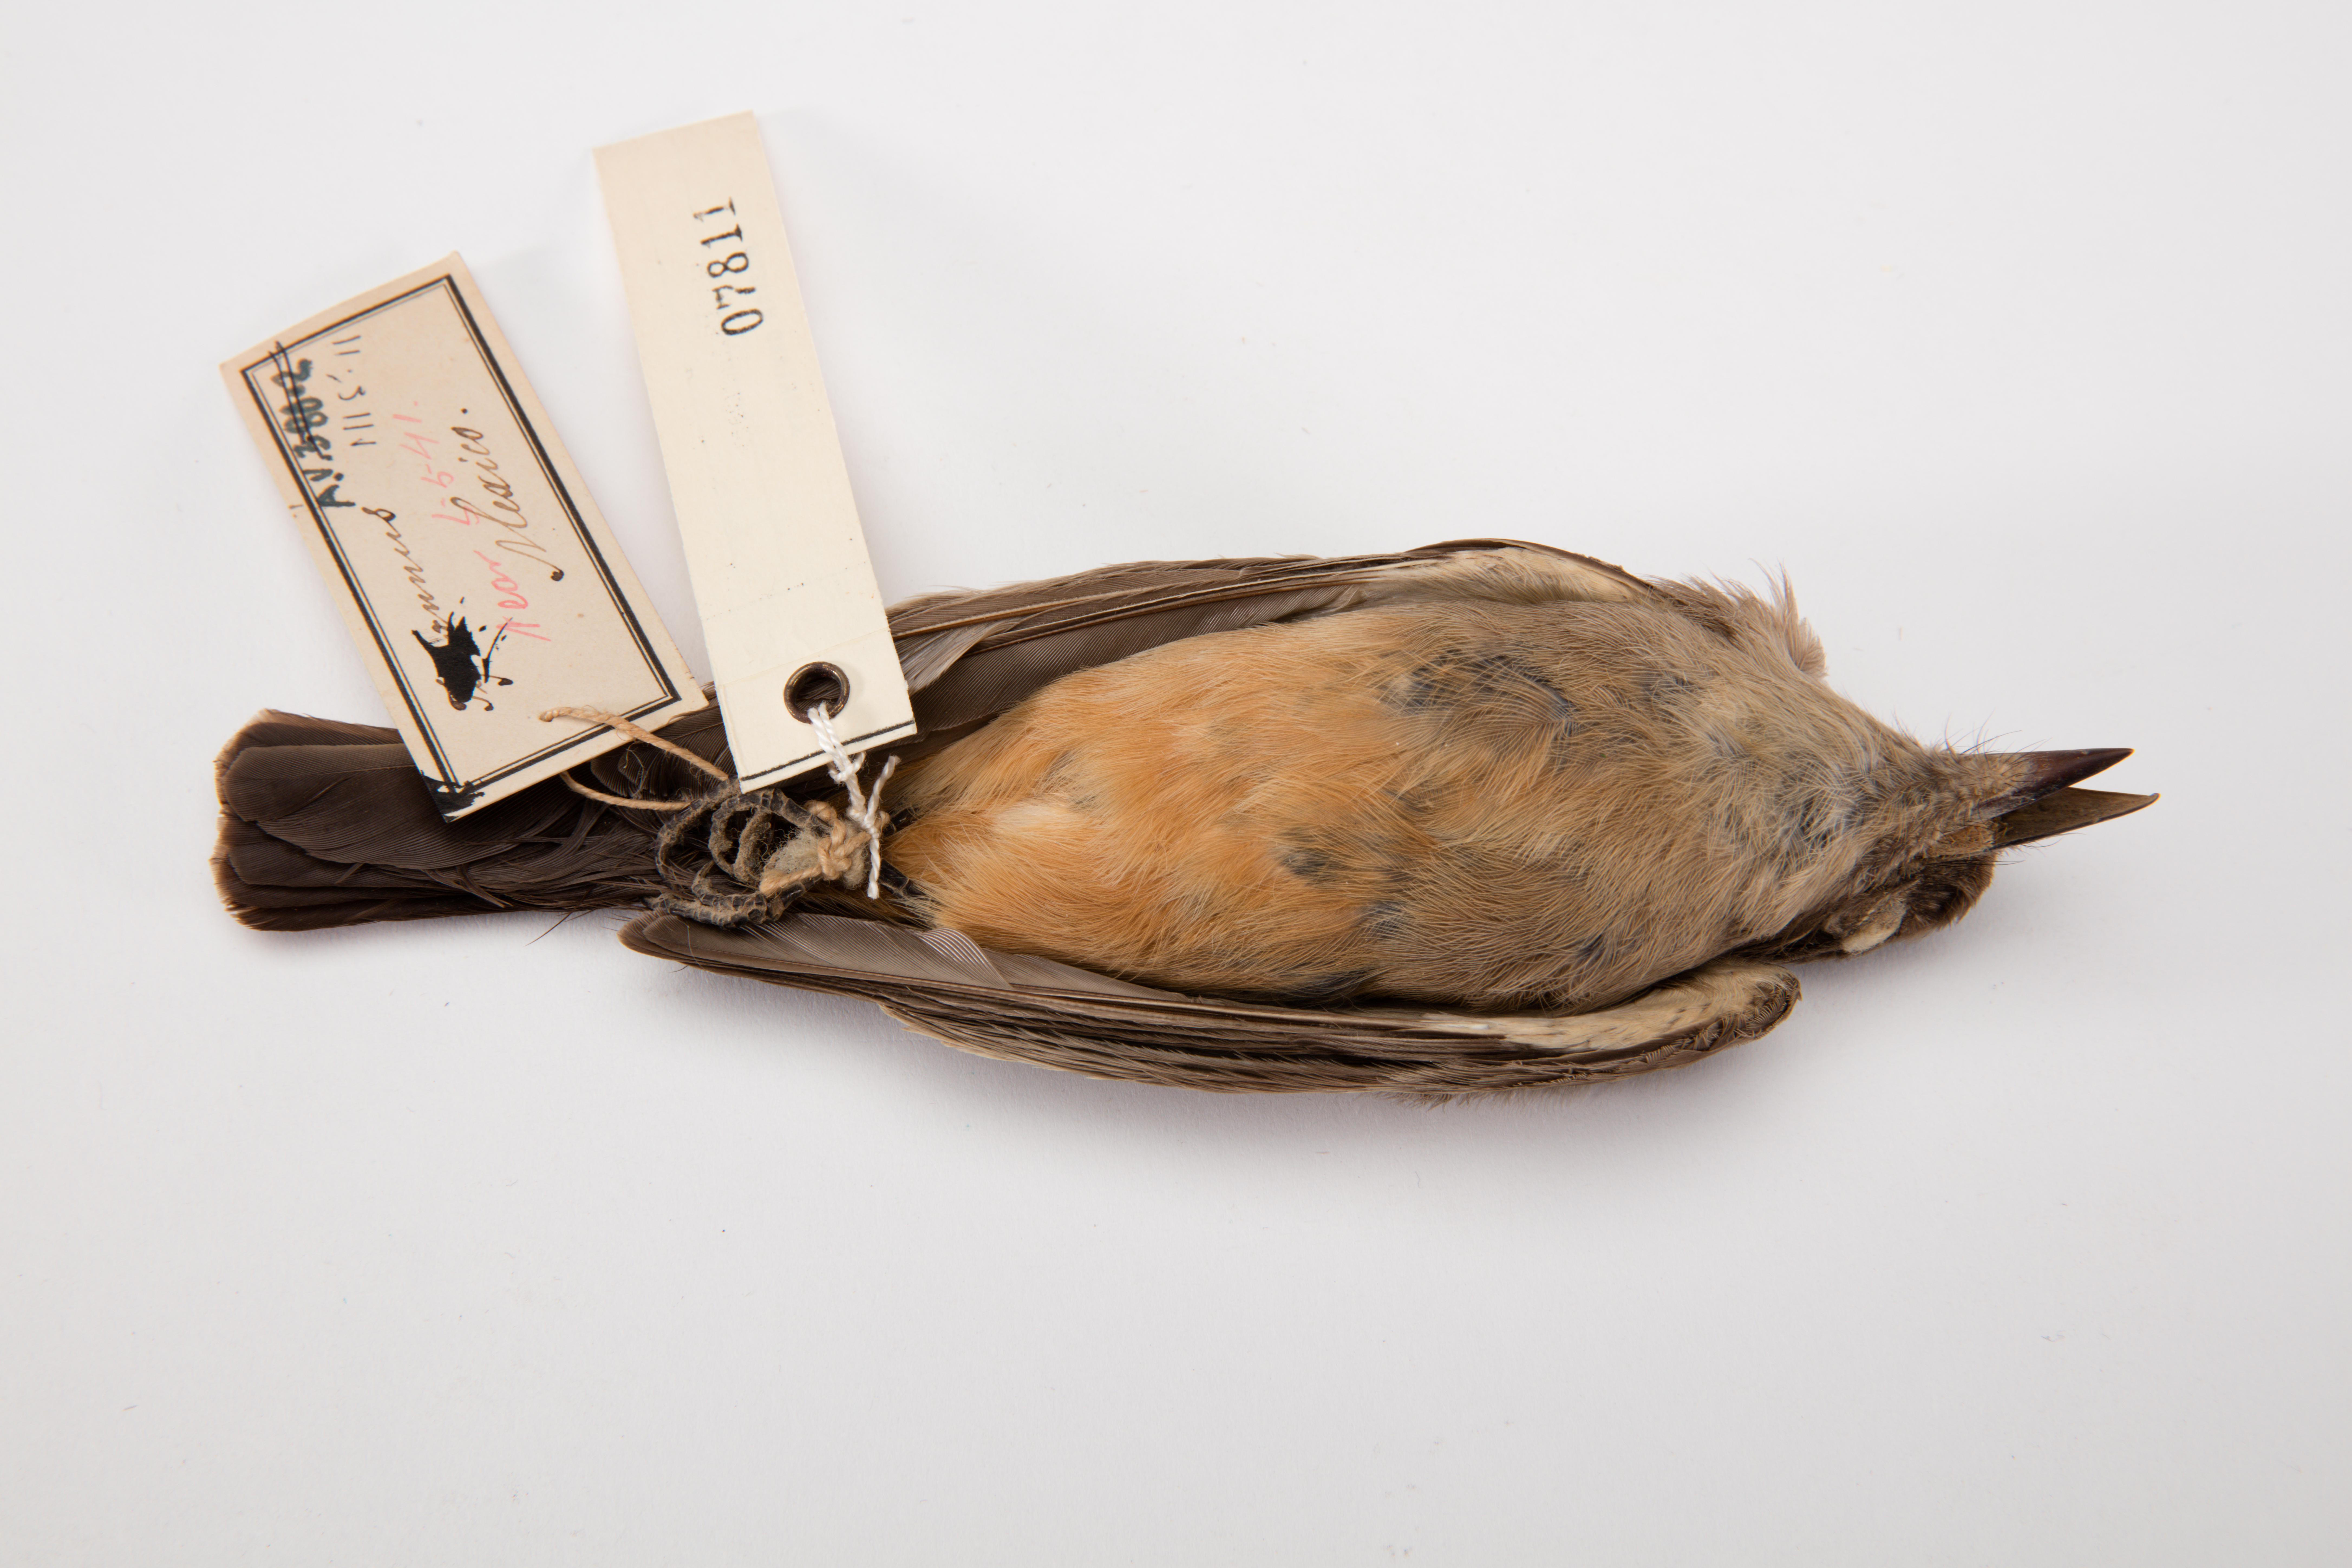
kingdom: Animalia
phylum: Chordata
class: Aves
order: Passeriformes
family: Tyrannidae
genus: Sayornis
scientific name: Sayornis saya
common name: Say's phoebe
